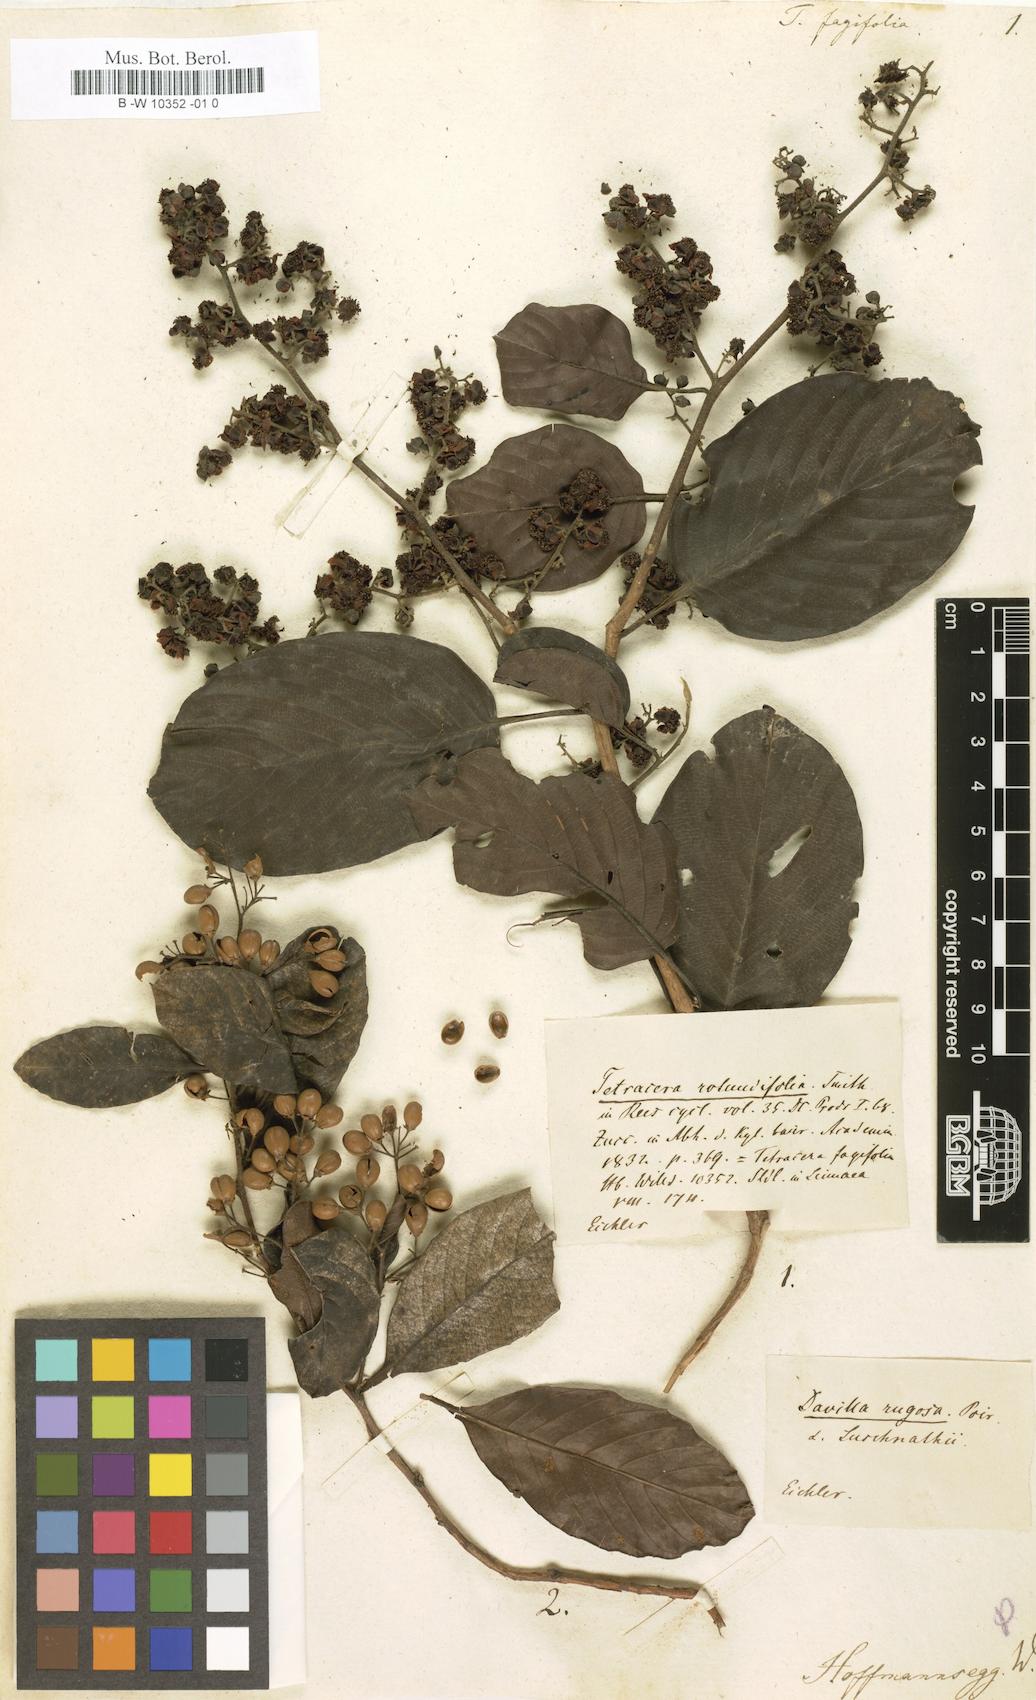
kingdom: Plantae
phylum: Tracheophyta
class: Magnoliopsida
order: Dilleniales
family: Dilleniaceae
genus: Tetracera
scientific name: Tetracera fagifolia
